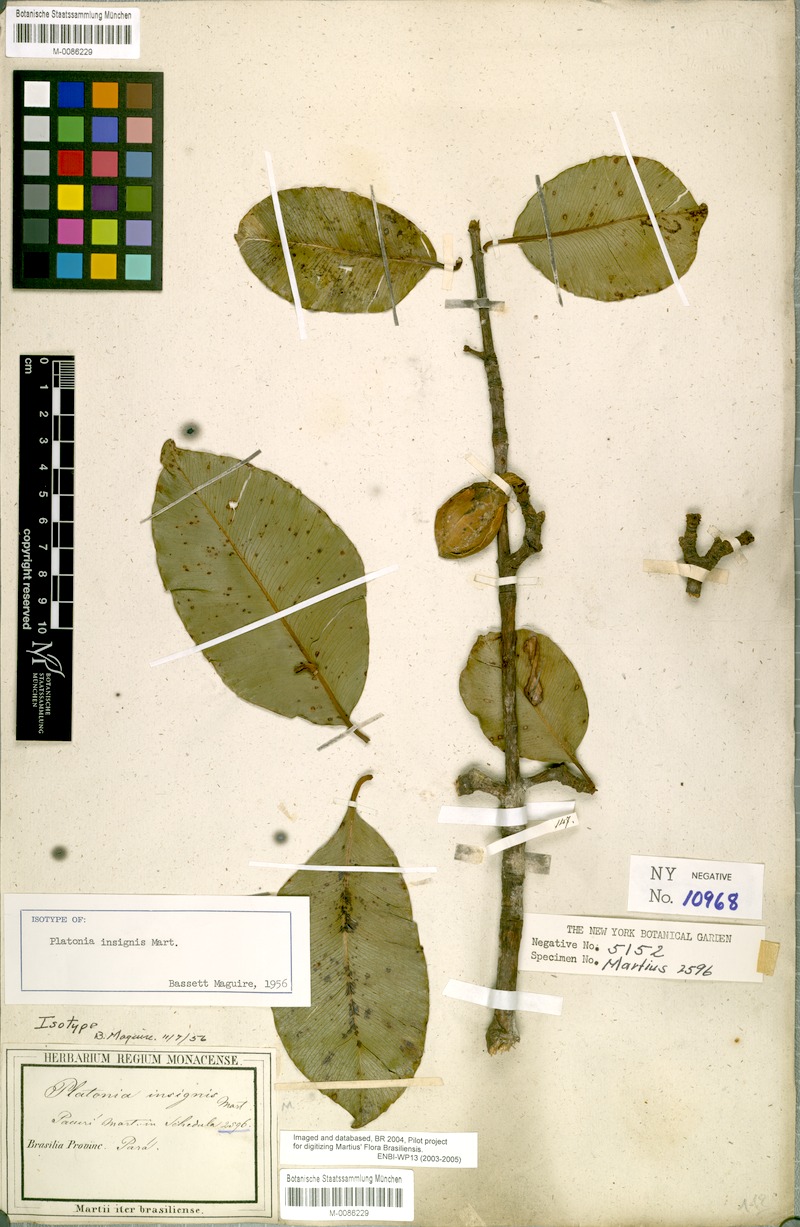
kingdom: Plantae
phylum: Tracheophyta
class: Magnoliopsida
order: Malpighiales
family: Clusiaceae
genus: Platonia
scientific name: Platonia insignis
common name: Bacury
